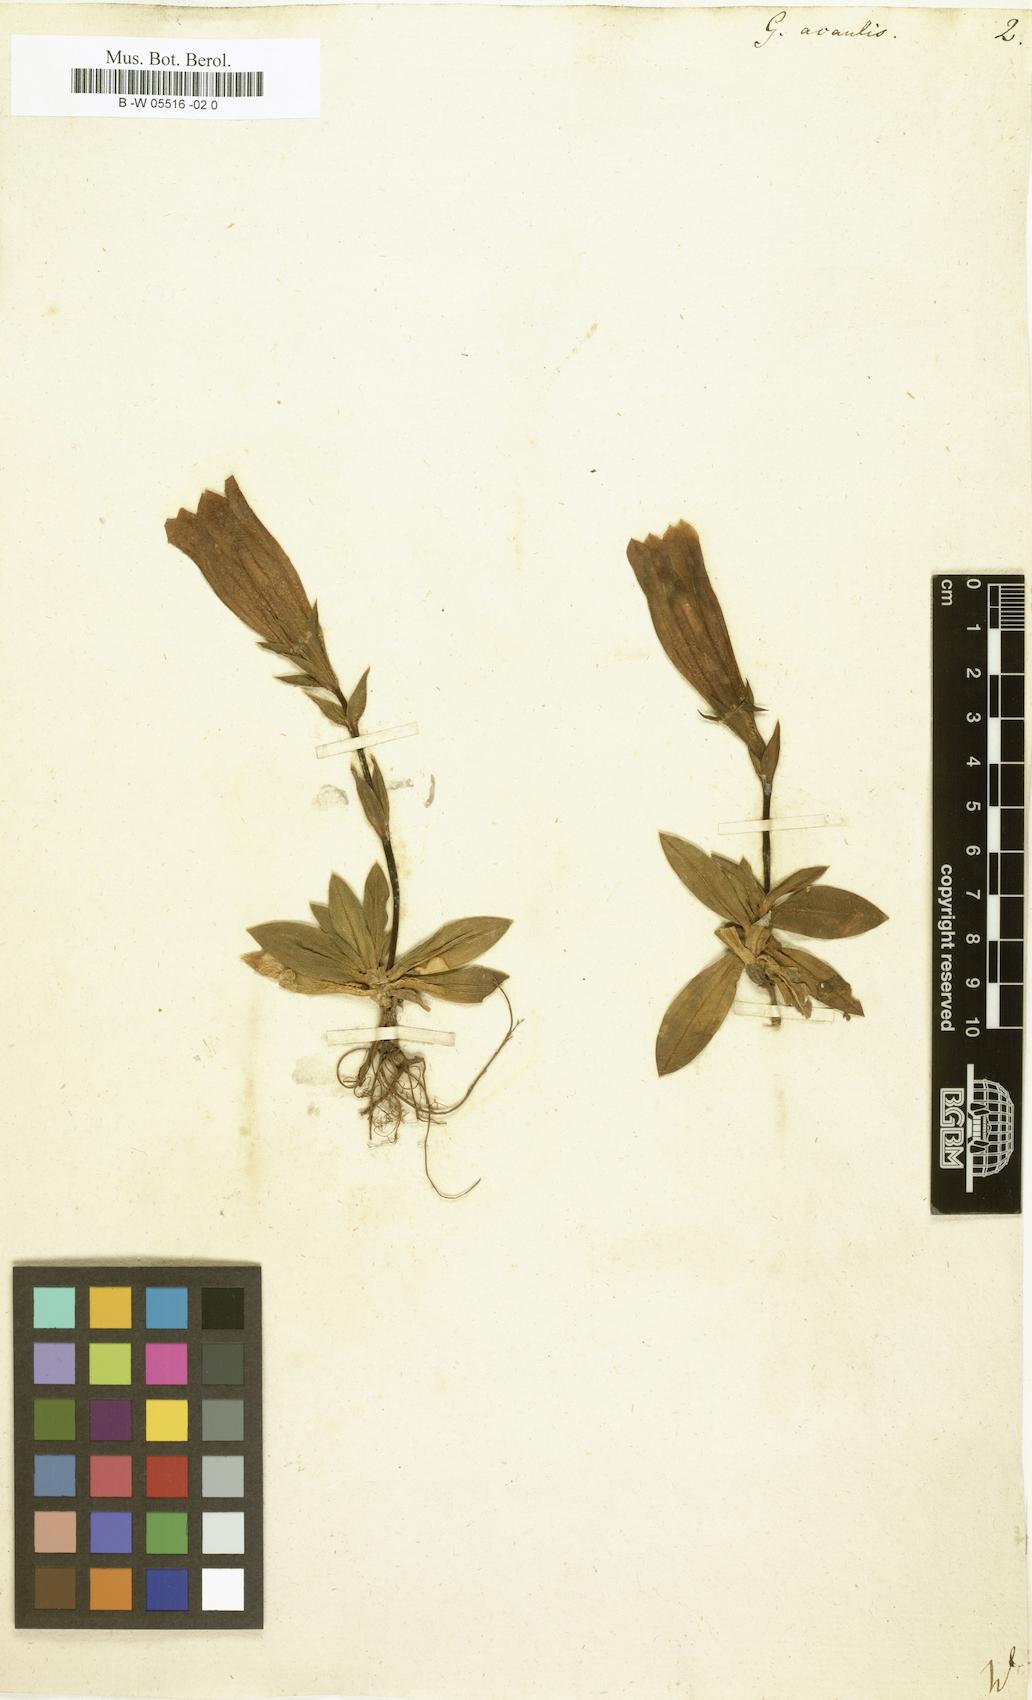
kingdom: Plantae
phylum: Tracheophyta
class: Magnoliopsida
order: Gentianales
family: Gentianaceae
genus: Gentiana
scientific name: Gentiana acaulis
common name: Trumpet gentian
